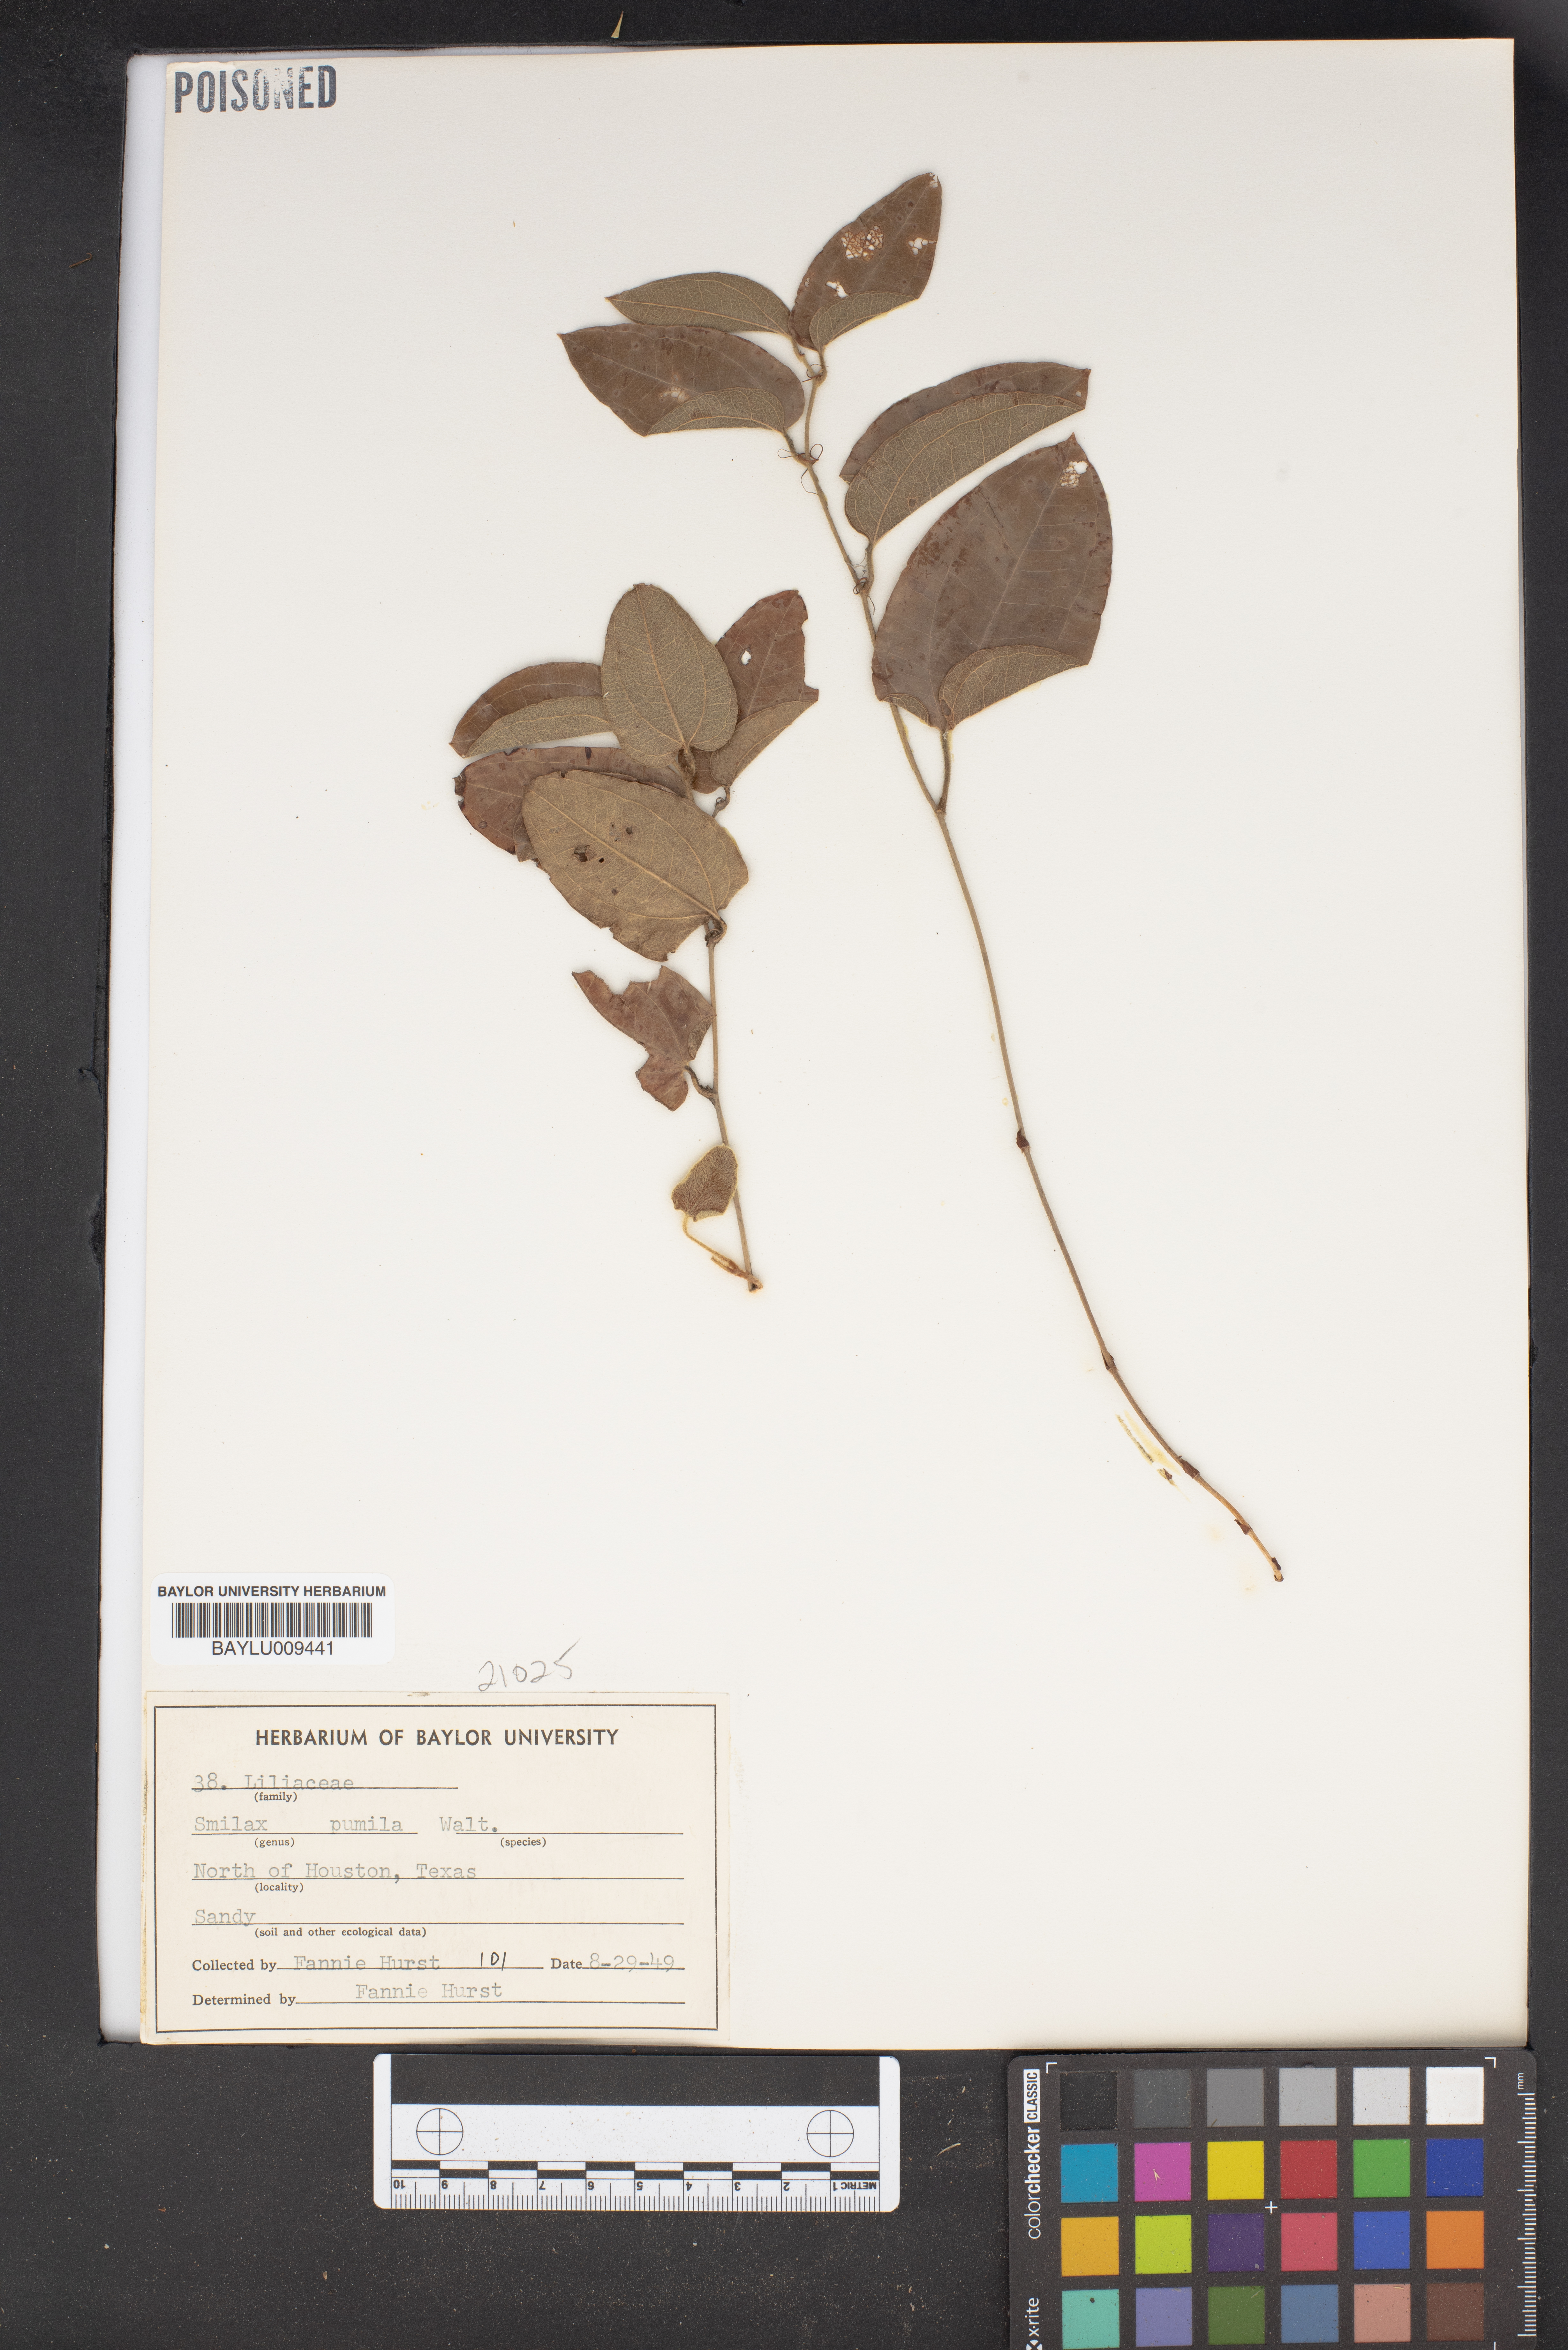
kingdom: Plantae
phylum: Tracheophyta
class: Liliopsida
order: Liliales
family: Smilacaceae
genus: Smilax
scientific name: Smilax pumila
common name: Sarsaparilla-vine
